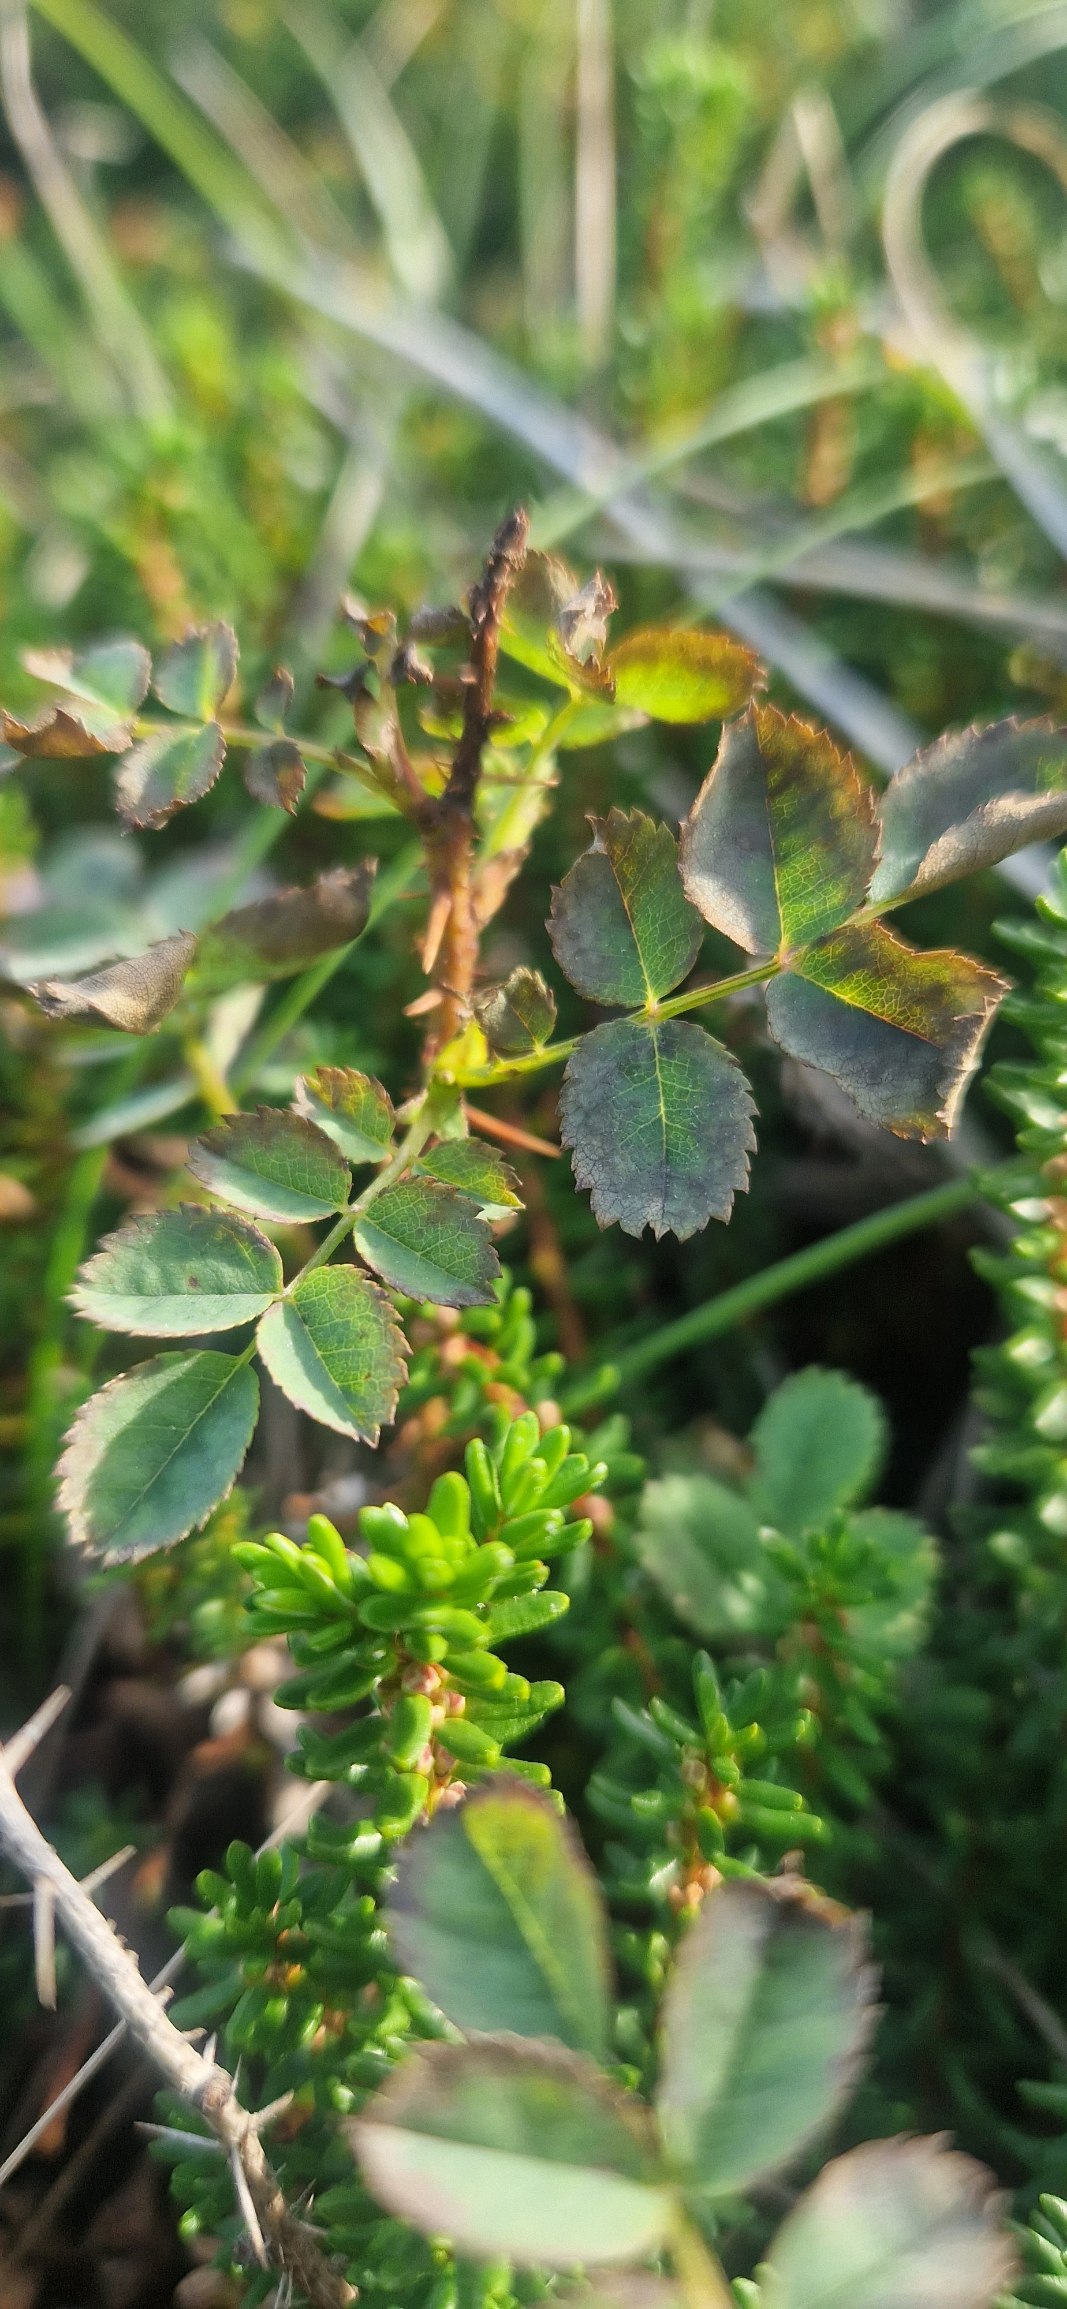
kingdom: Plantae
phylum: Tracheophyta
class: Magnoliopsida
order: Rosales
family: Rosaceae
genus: Rosa
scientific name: Rosa spinosissima
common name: Klit-rose
